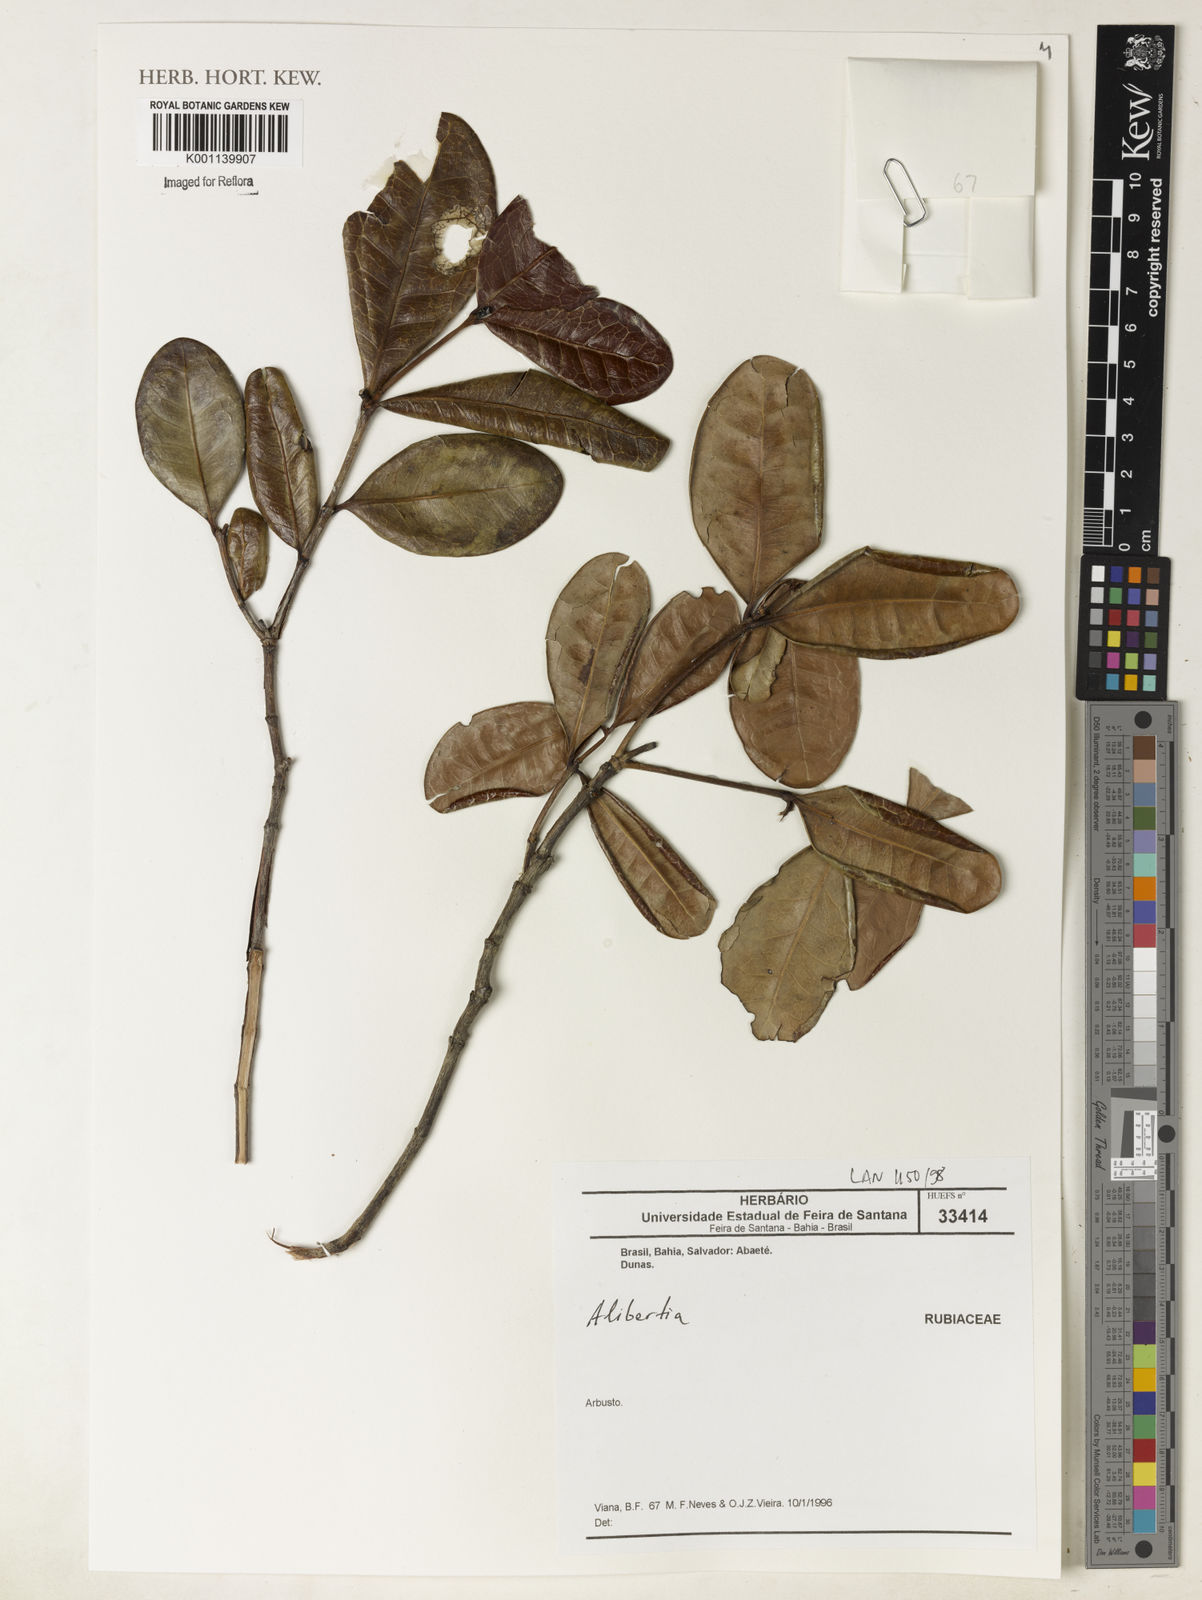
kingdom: Plantae
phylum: Tracheophyta
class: Magnoliopsida
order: Gentianales
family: Rubiaceae
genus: Alibertia
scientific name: Alibertia
